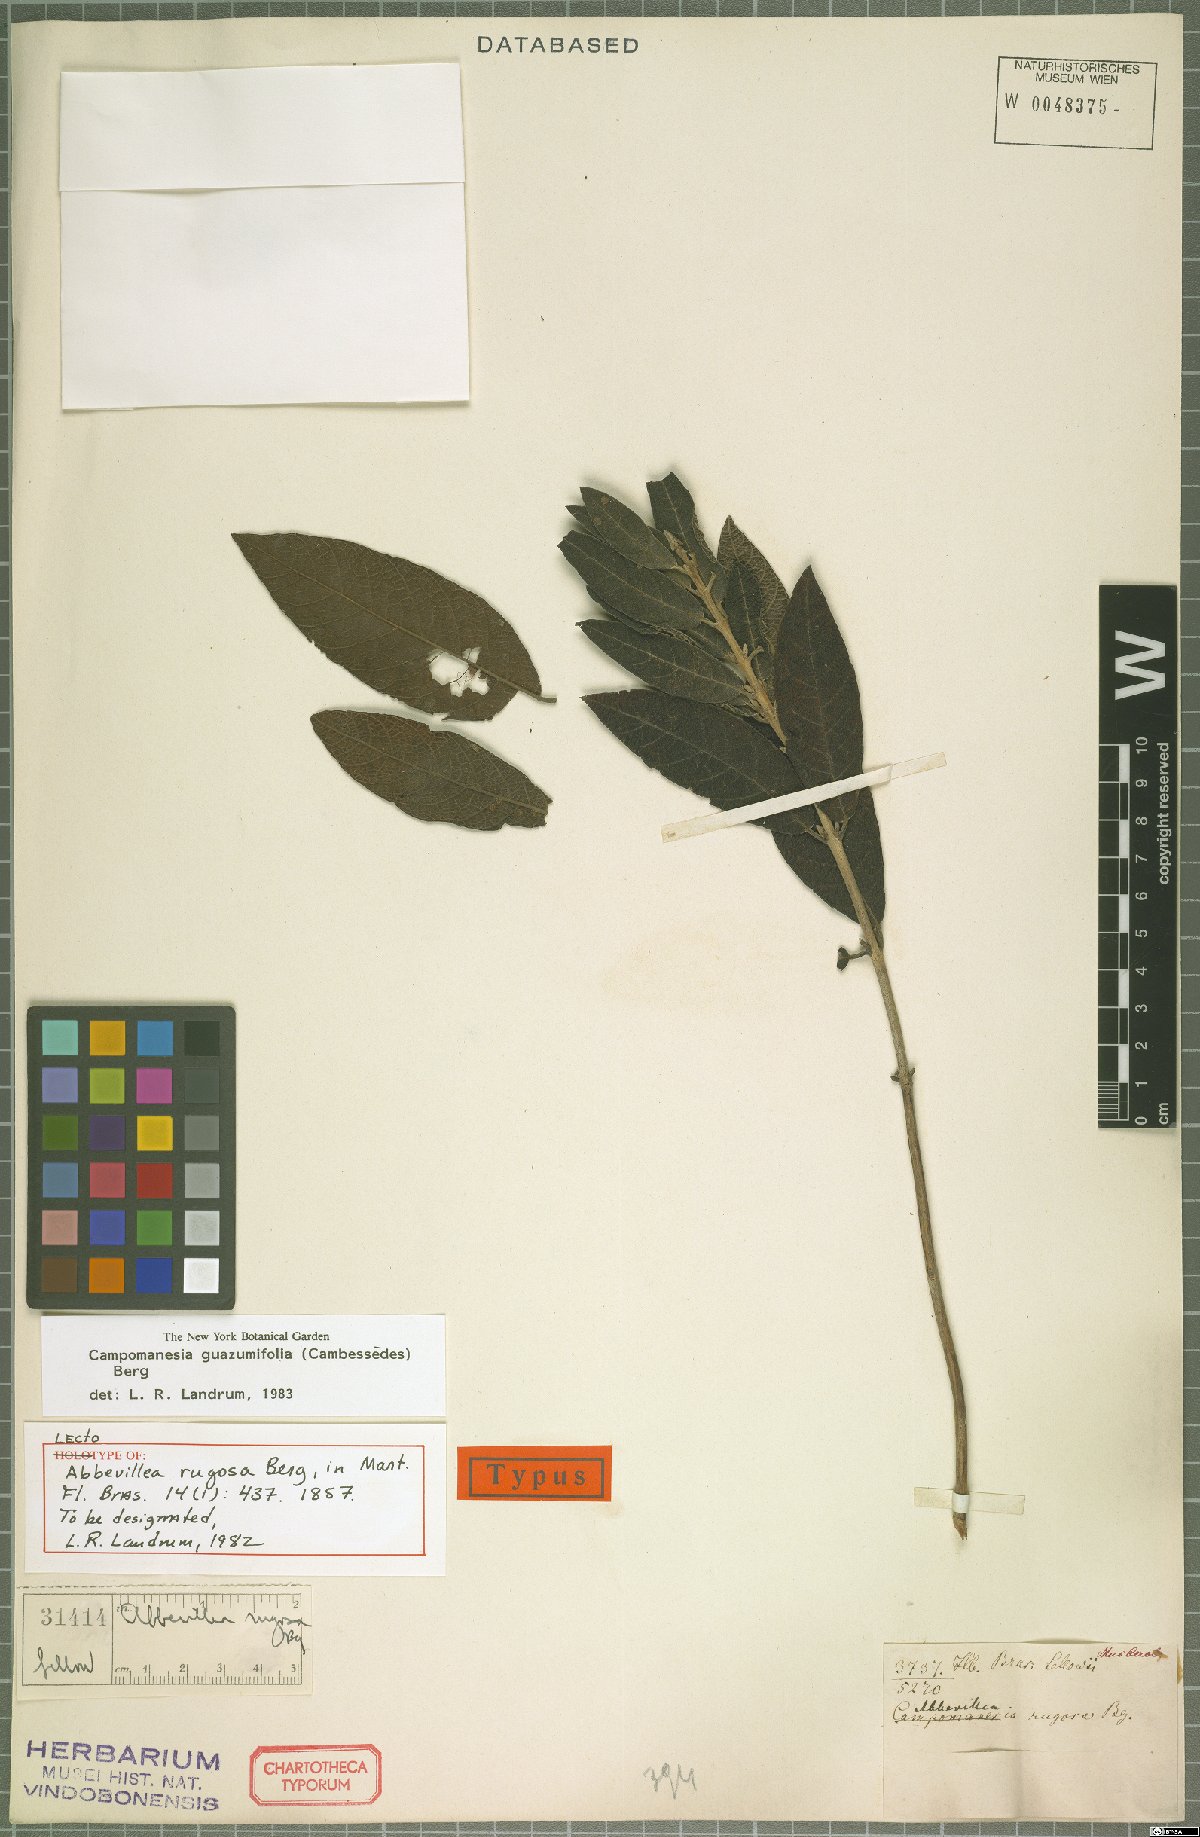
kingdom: Plantae
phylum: Tracheophyta
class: Magnoliopsida
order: Myrtales
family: Myrtaceae
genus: Campomanesia
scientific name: Campomanesia guazumifolia
